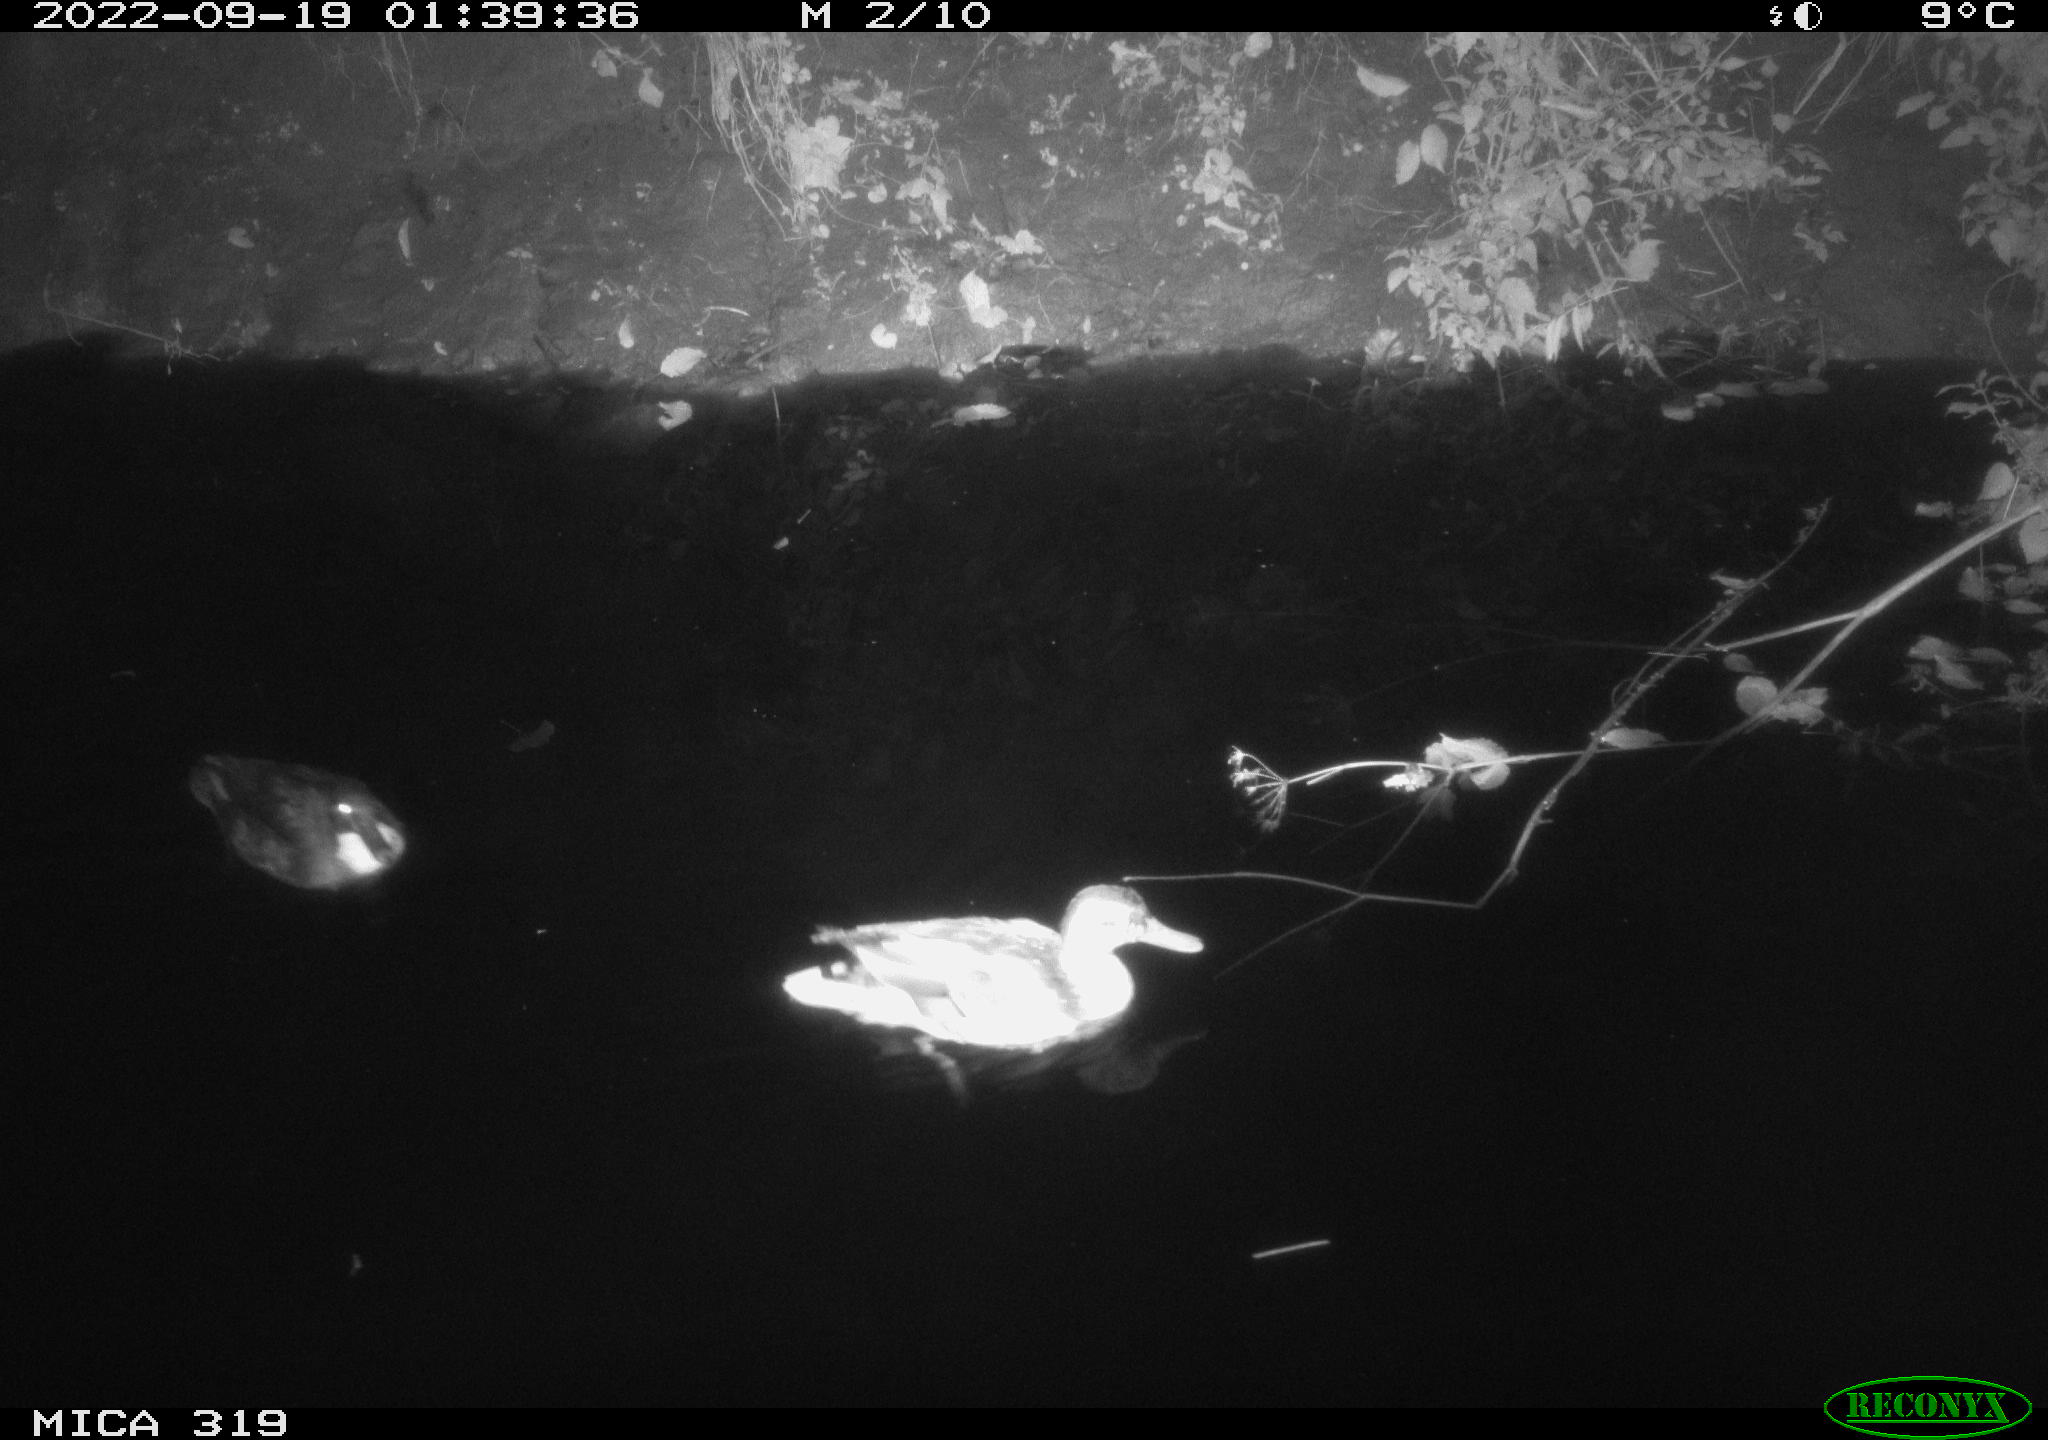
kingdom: Animalia
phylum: Chordata
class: Aves
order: Anseriformes
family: Anatidae
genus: Anas
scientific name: Anas
